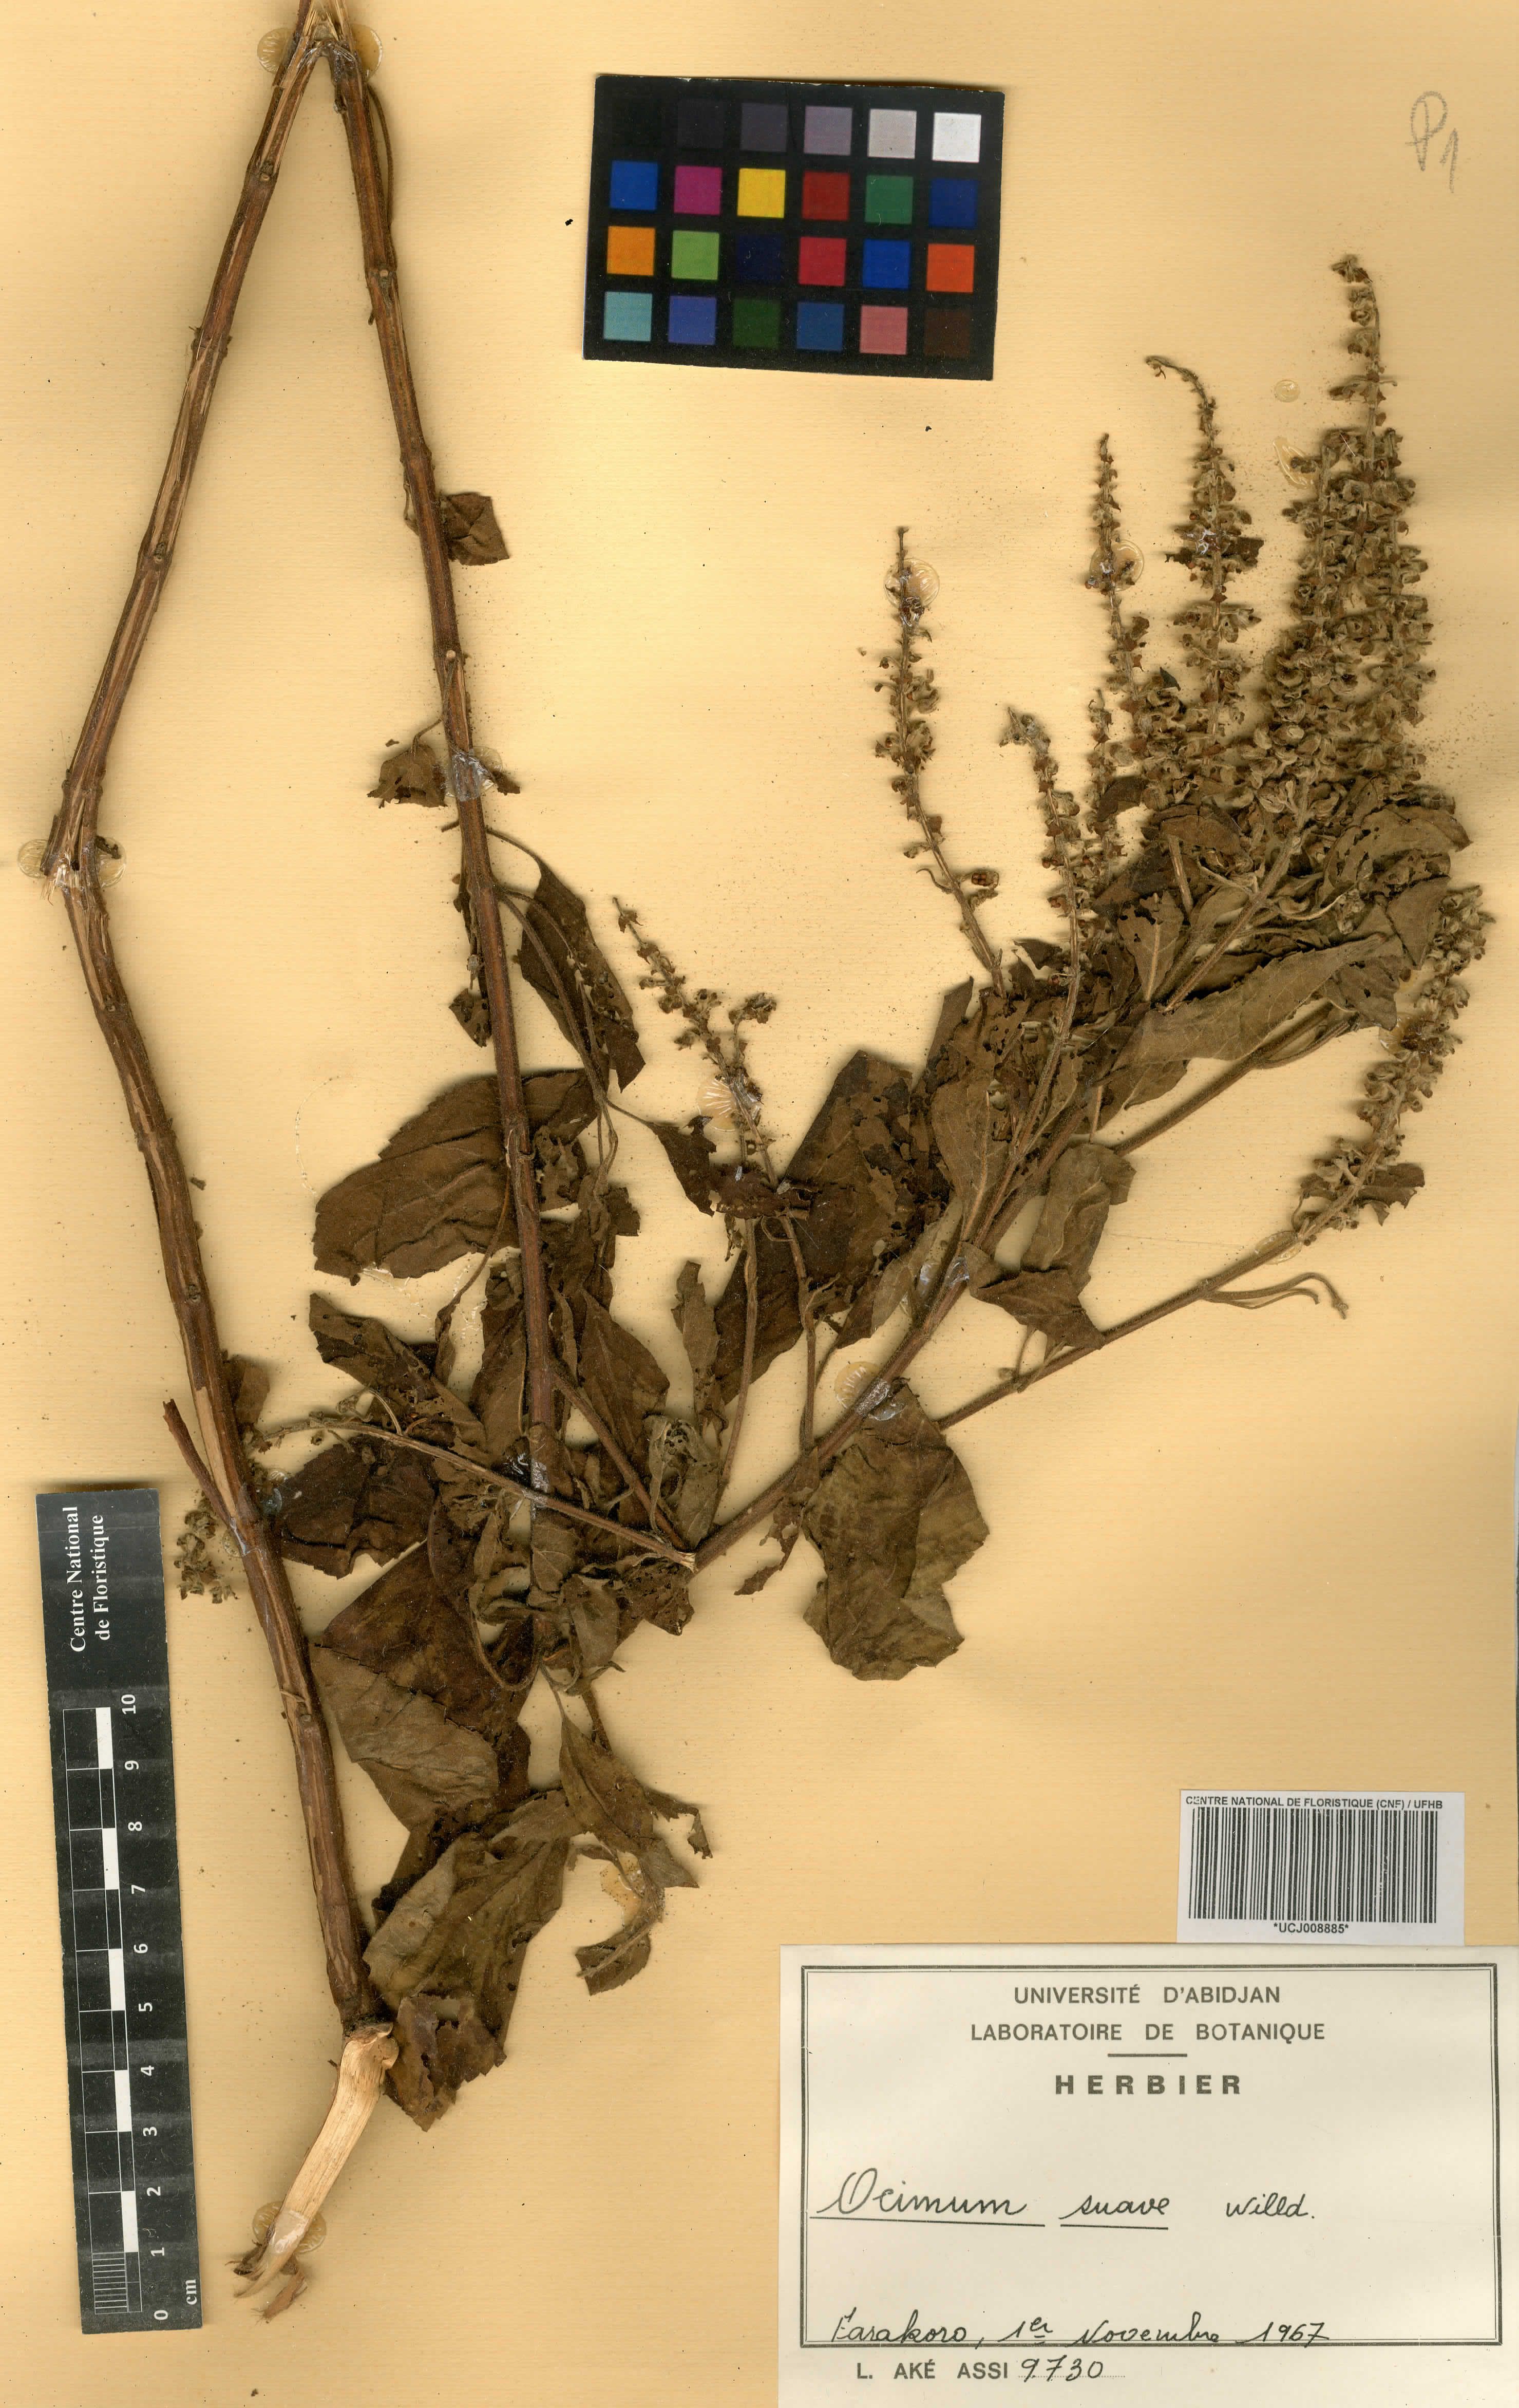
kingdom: Plantae
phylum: Tracheophyta
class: Magnoliopsida
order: Lamiales
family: Lamiaceae
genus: Ocimum
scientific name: Ocimum gratissimum
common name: African basil
